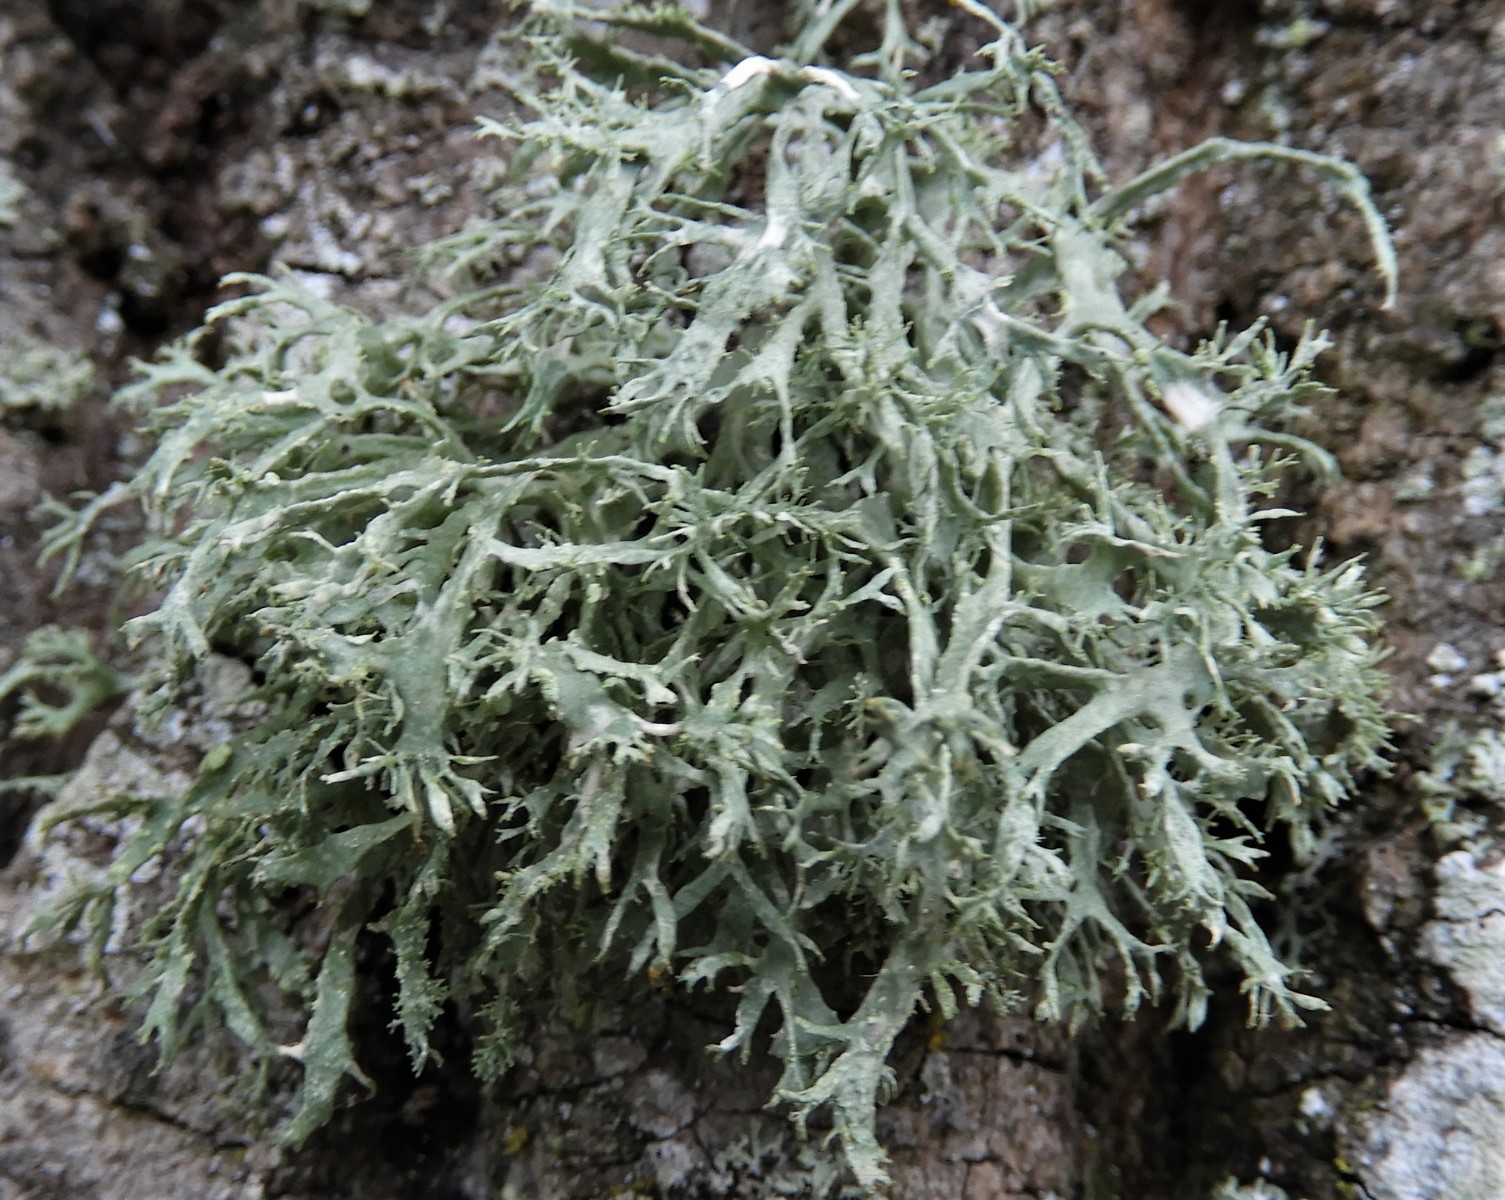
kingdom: Fungi
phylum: Ascomycota
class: Lecanoromycetes
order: Lecanorales
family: Parmeliaceae
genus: Evernia
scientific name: Evernia prunastri
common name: almindelig slåenlav
